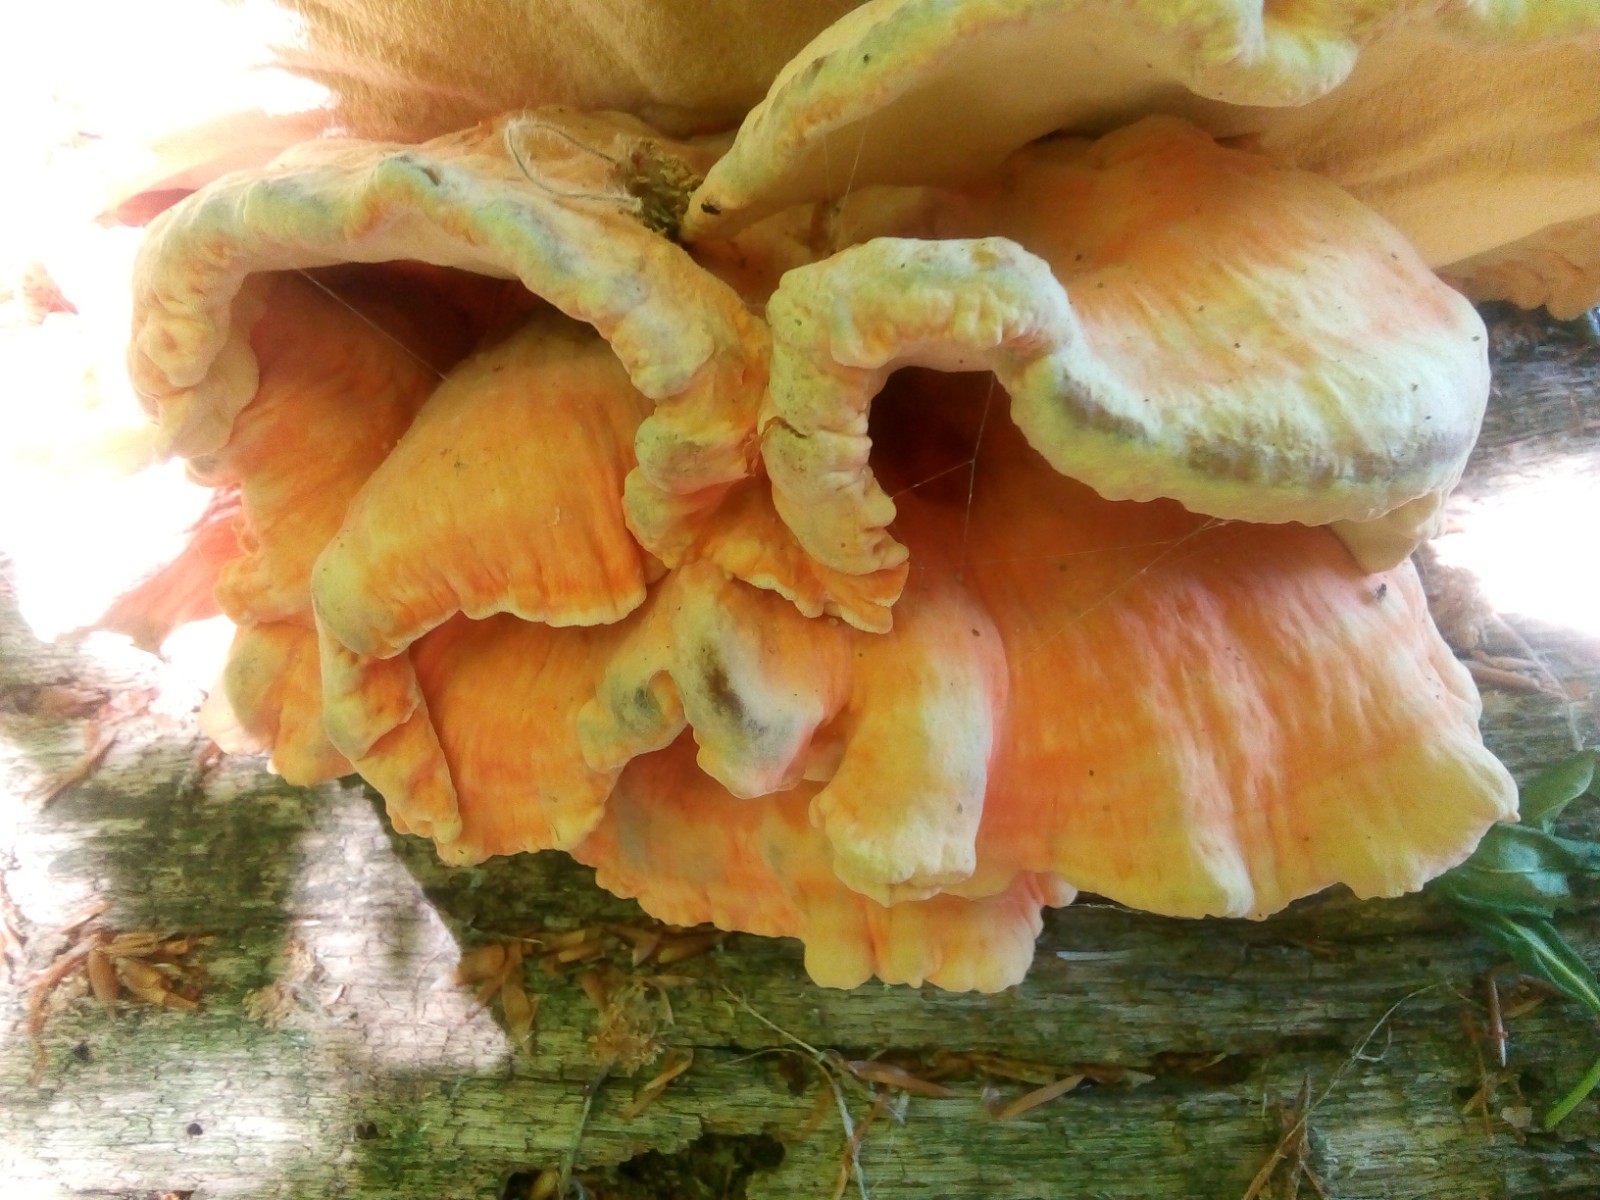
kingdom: Fungi
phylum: Basidiomycota
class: Agaricomycetes
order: Polyporales
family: Laetiporaceae
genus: Laetiporus
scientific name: Laetiporus sulphureus
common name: svovlporesvamp
